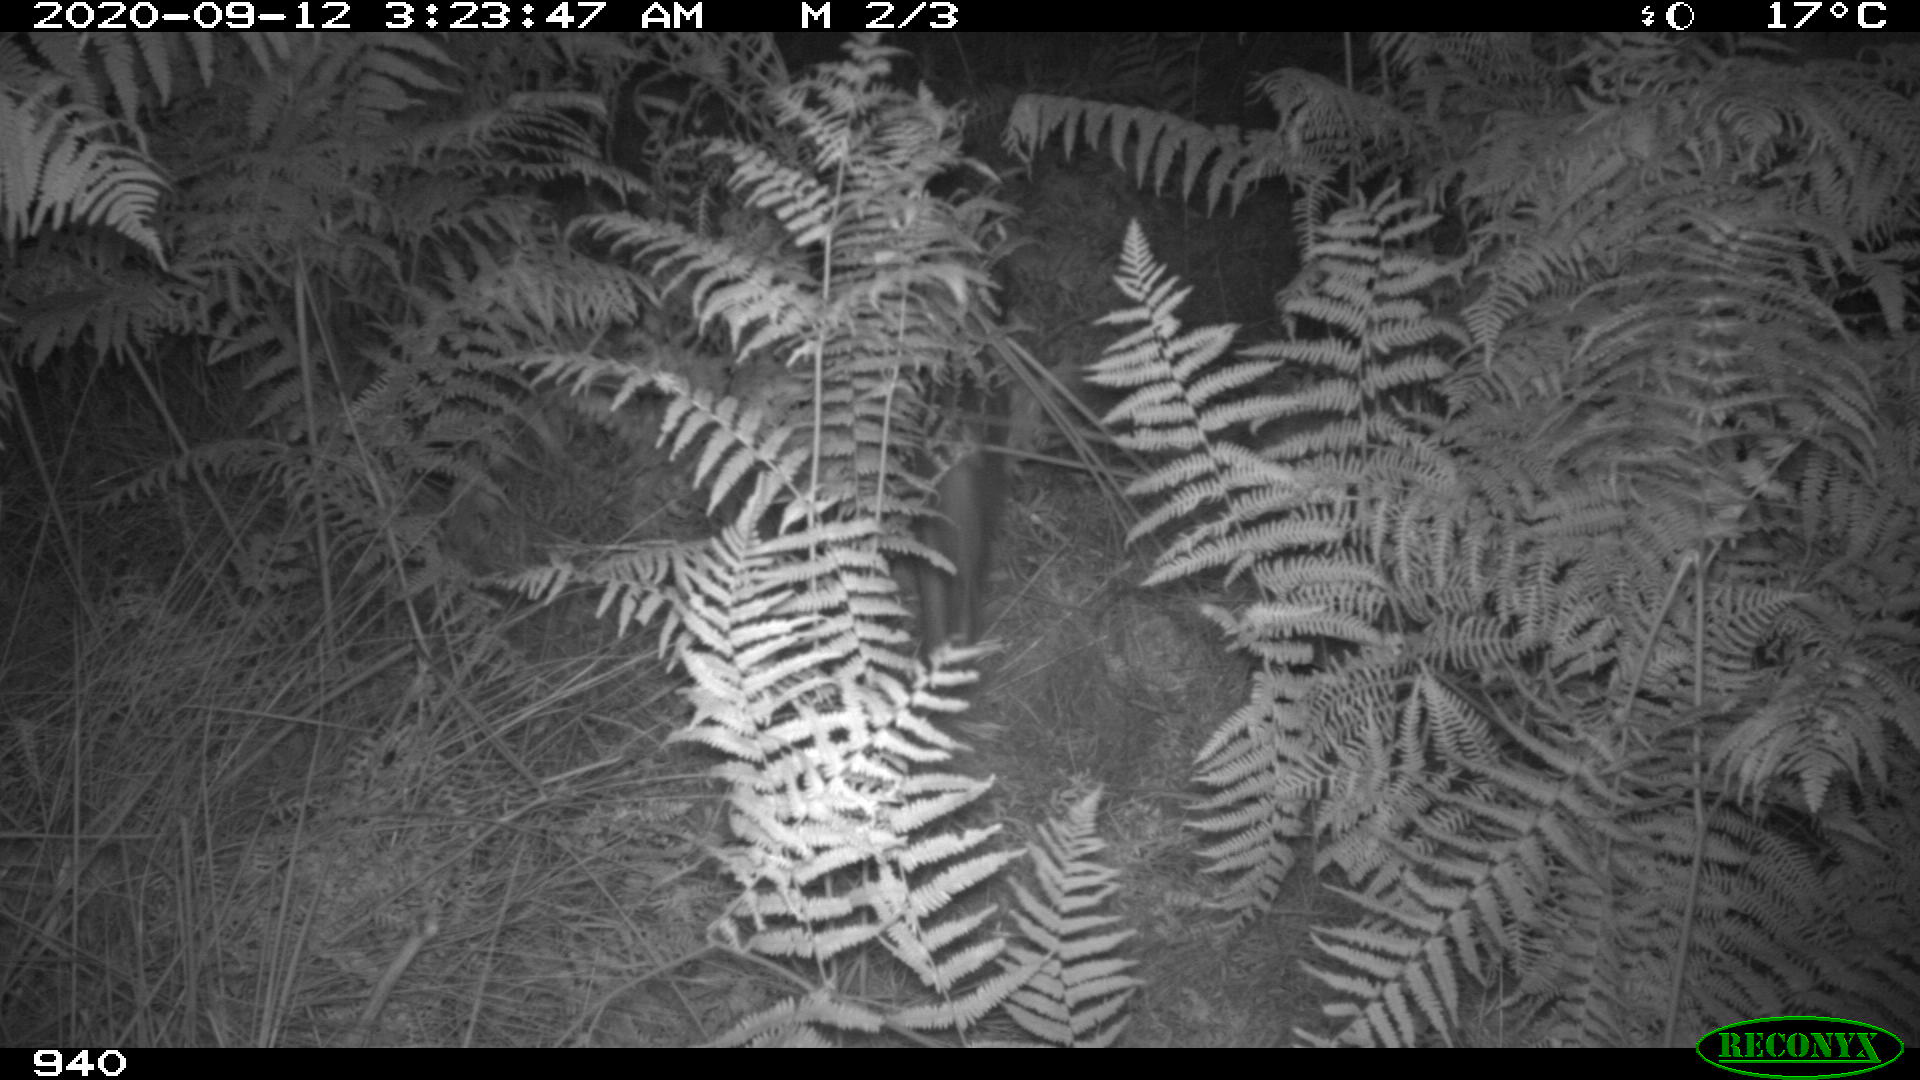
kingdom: Animalia
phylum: Chordata
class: Mammalia
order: Artiodactyla
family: Suidae
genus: Sus
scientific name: Sus scrofa
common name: Wild boar
